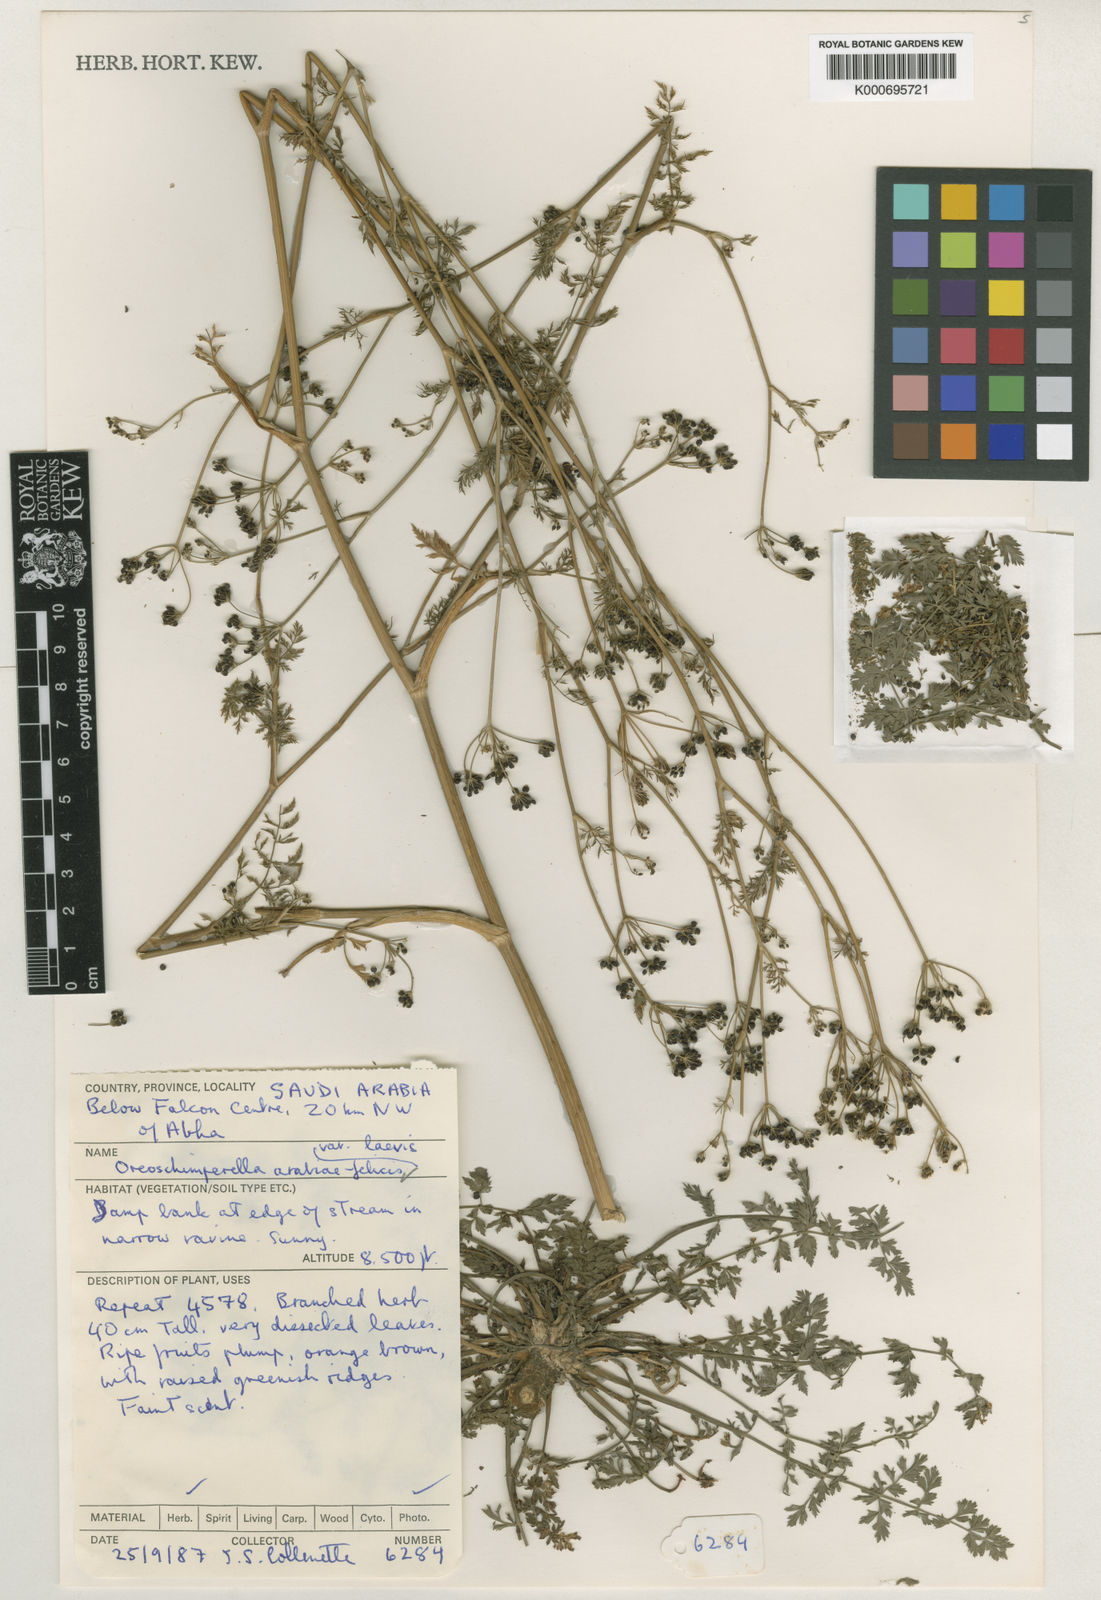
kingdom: Plantae
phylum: Tracheophyta
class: Magnoliopsida
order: Apiales
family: Apiaceae
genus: Oreoschimperella
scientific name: Oreoschimperella arabiae-felicis
